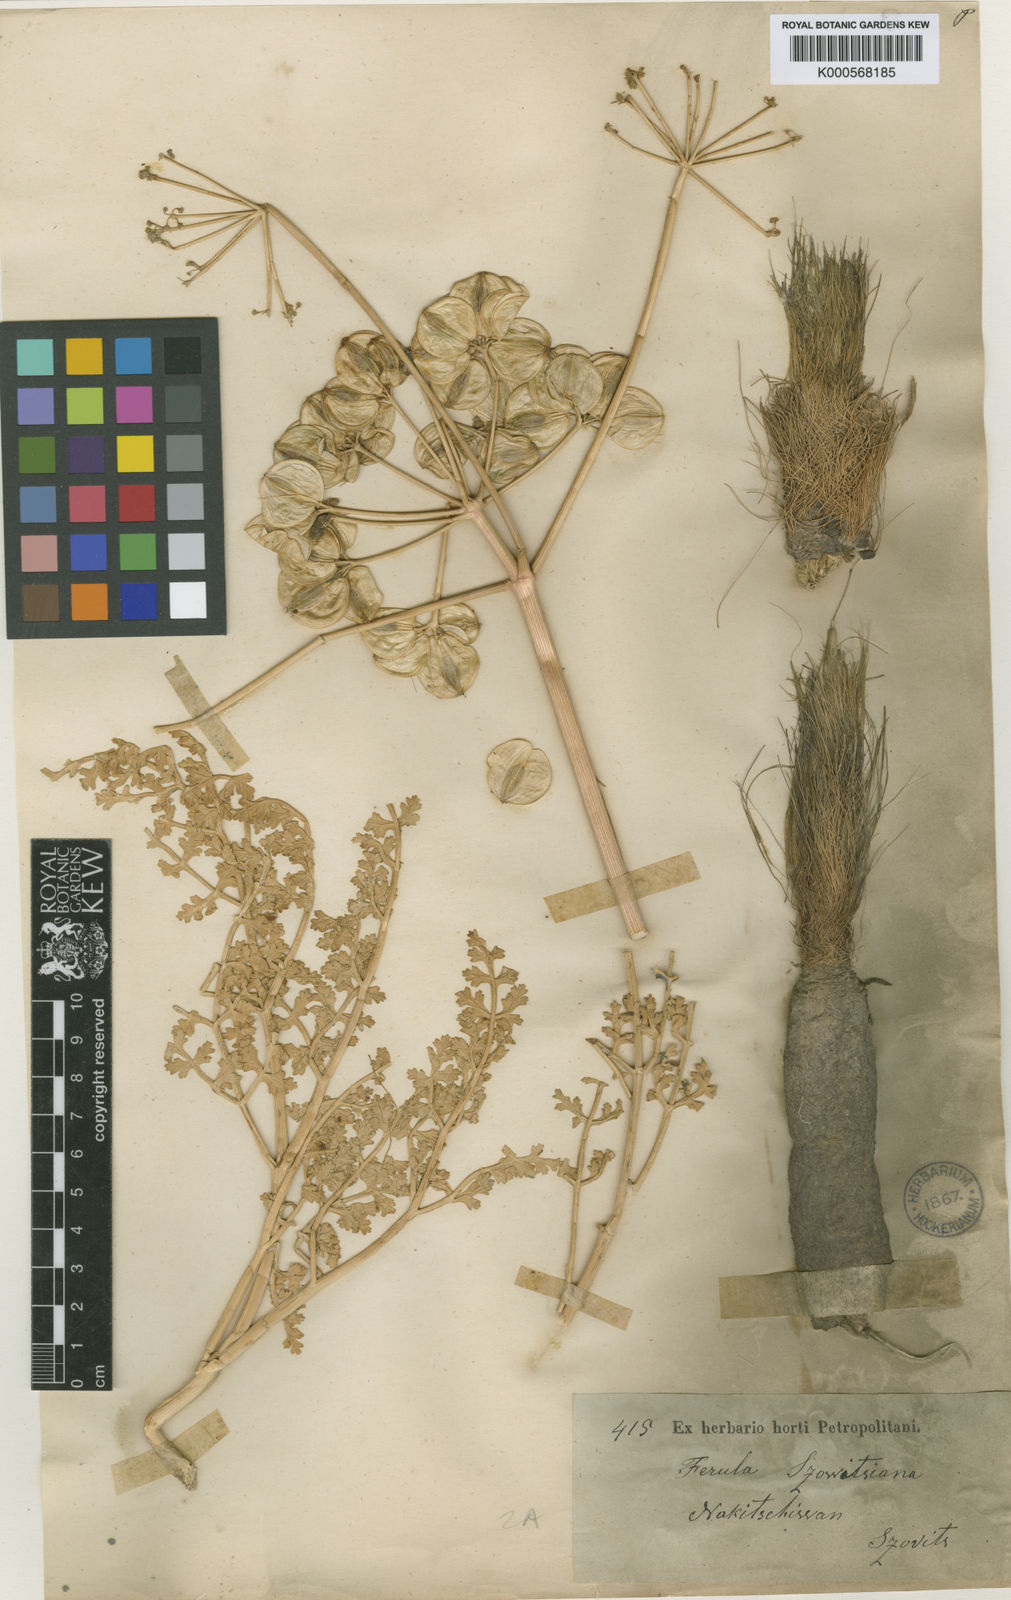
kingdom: Plantae
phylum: Tracheophyta
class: Magnoliopsida
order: Apiales
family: Apiaceae
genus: Ferula
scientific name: Ferula szowitsiana
